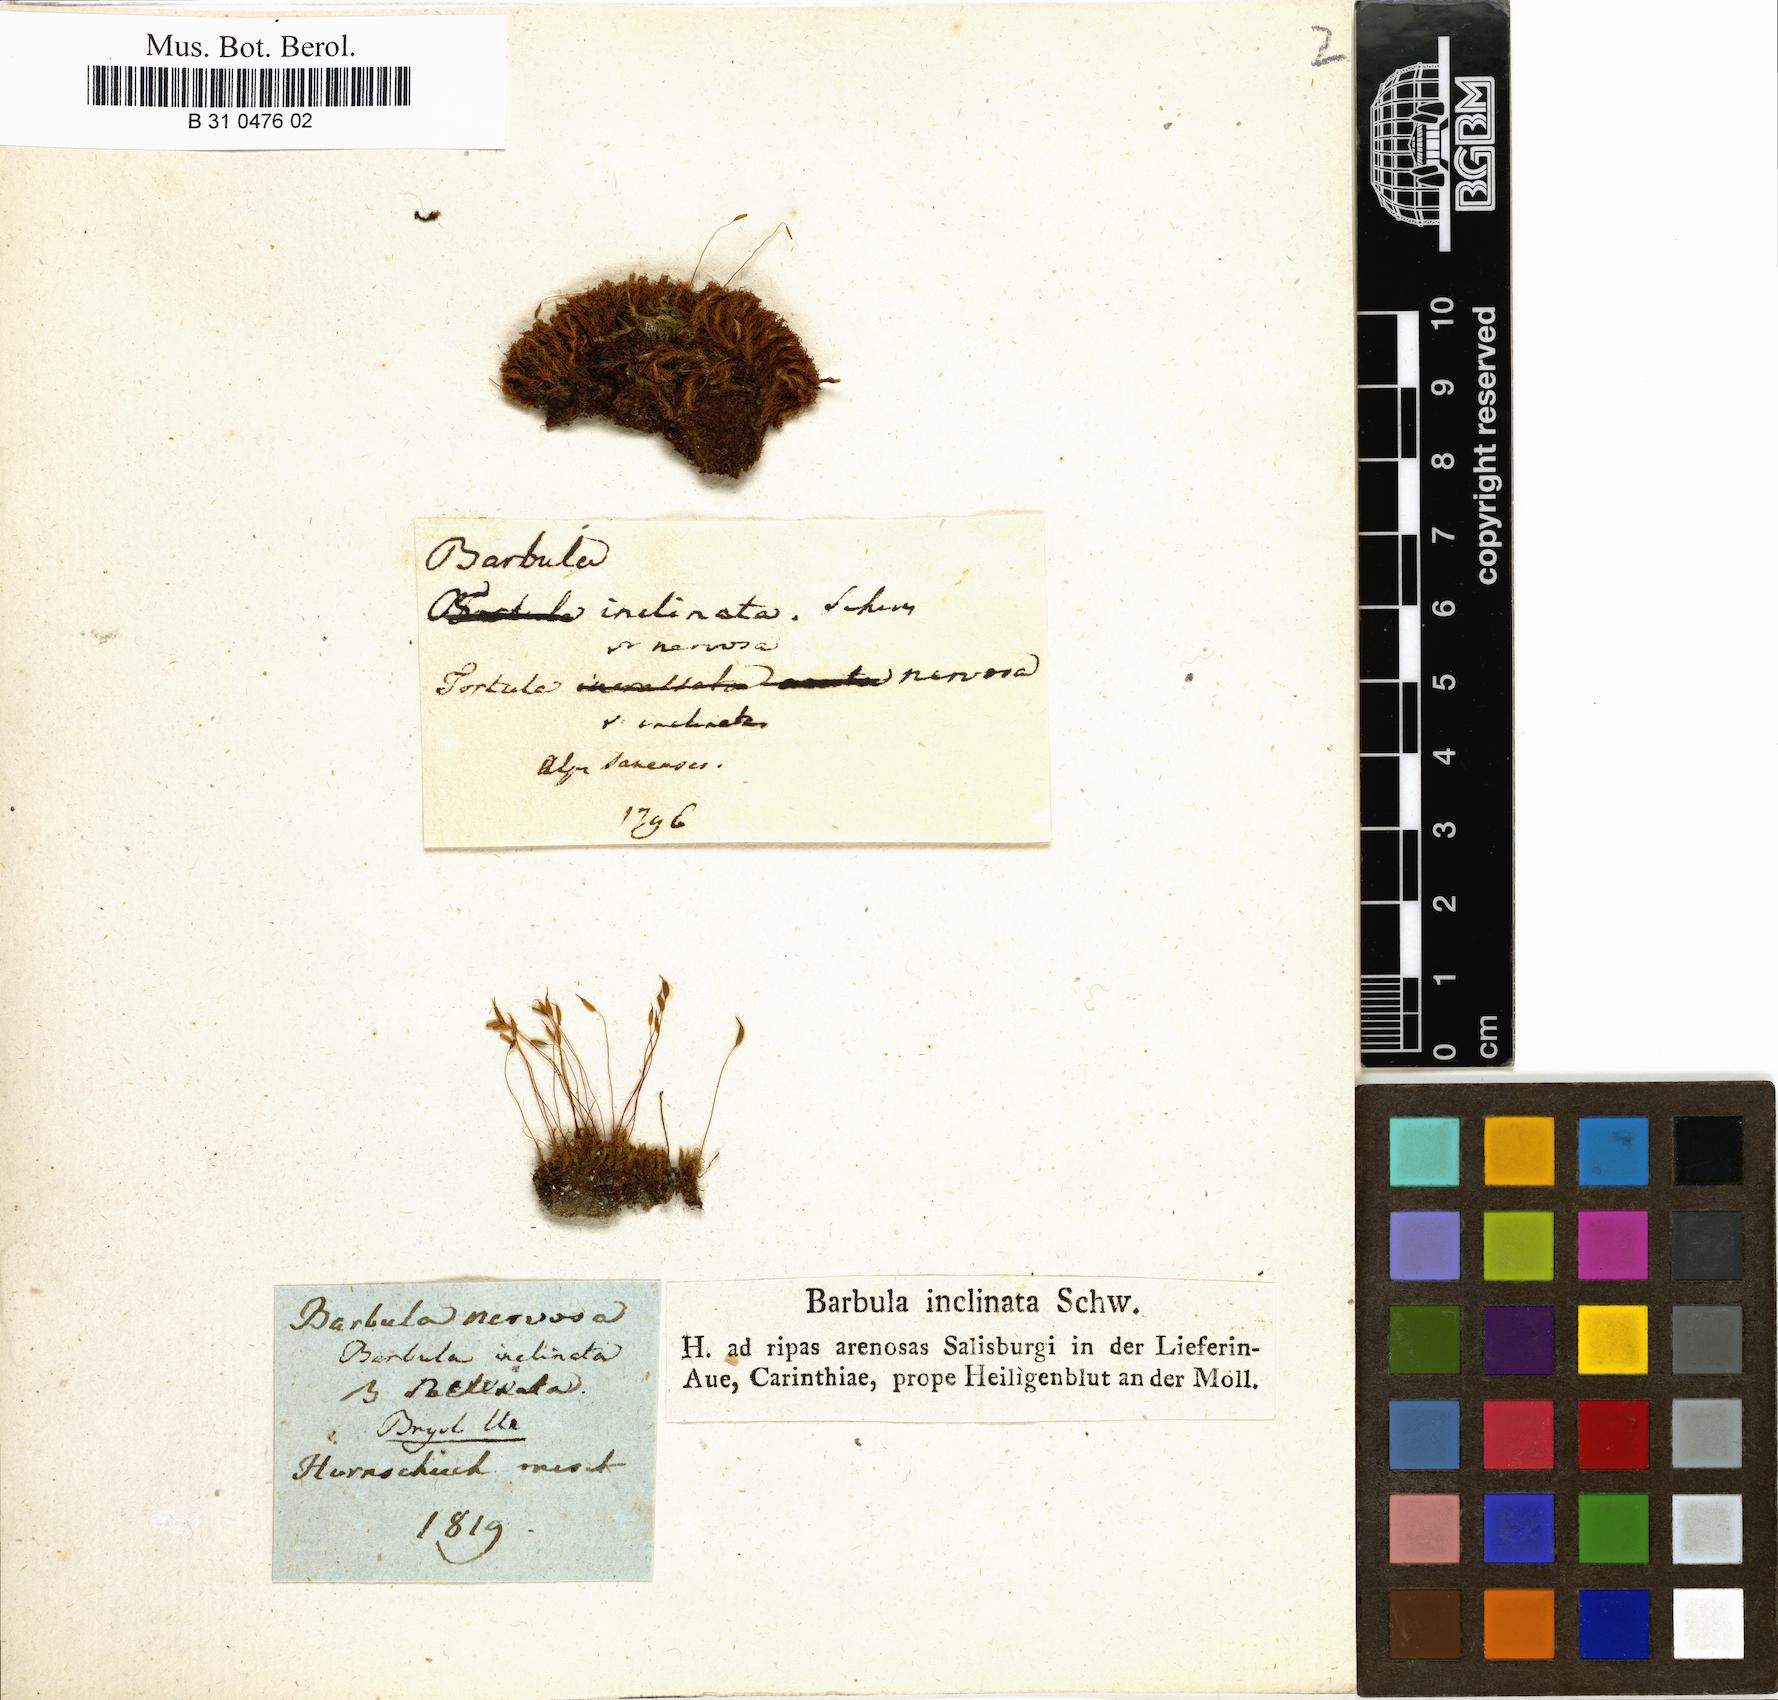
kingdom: Plantae
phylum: Bryophyta
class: Bryopsida
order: Pottiales
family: Pottiaceae
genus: Tortella
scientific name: Tortella inclinata
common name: Inclined twisted moss
